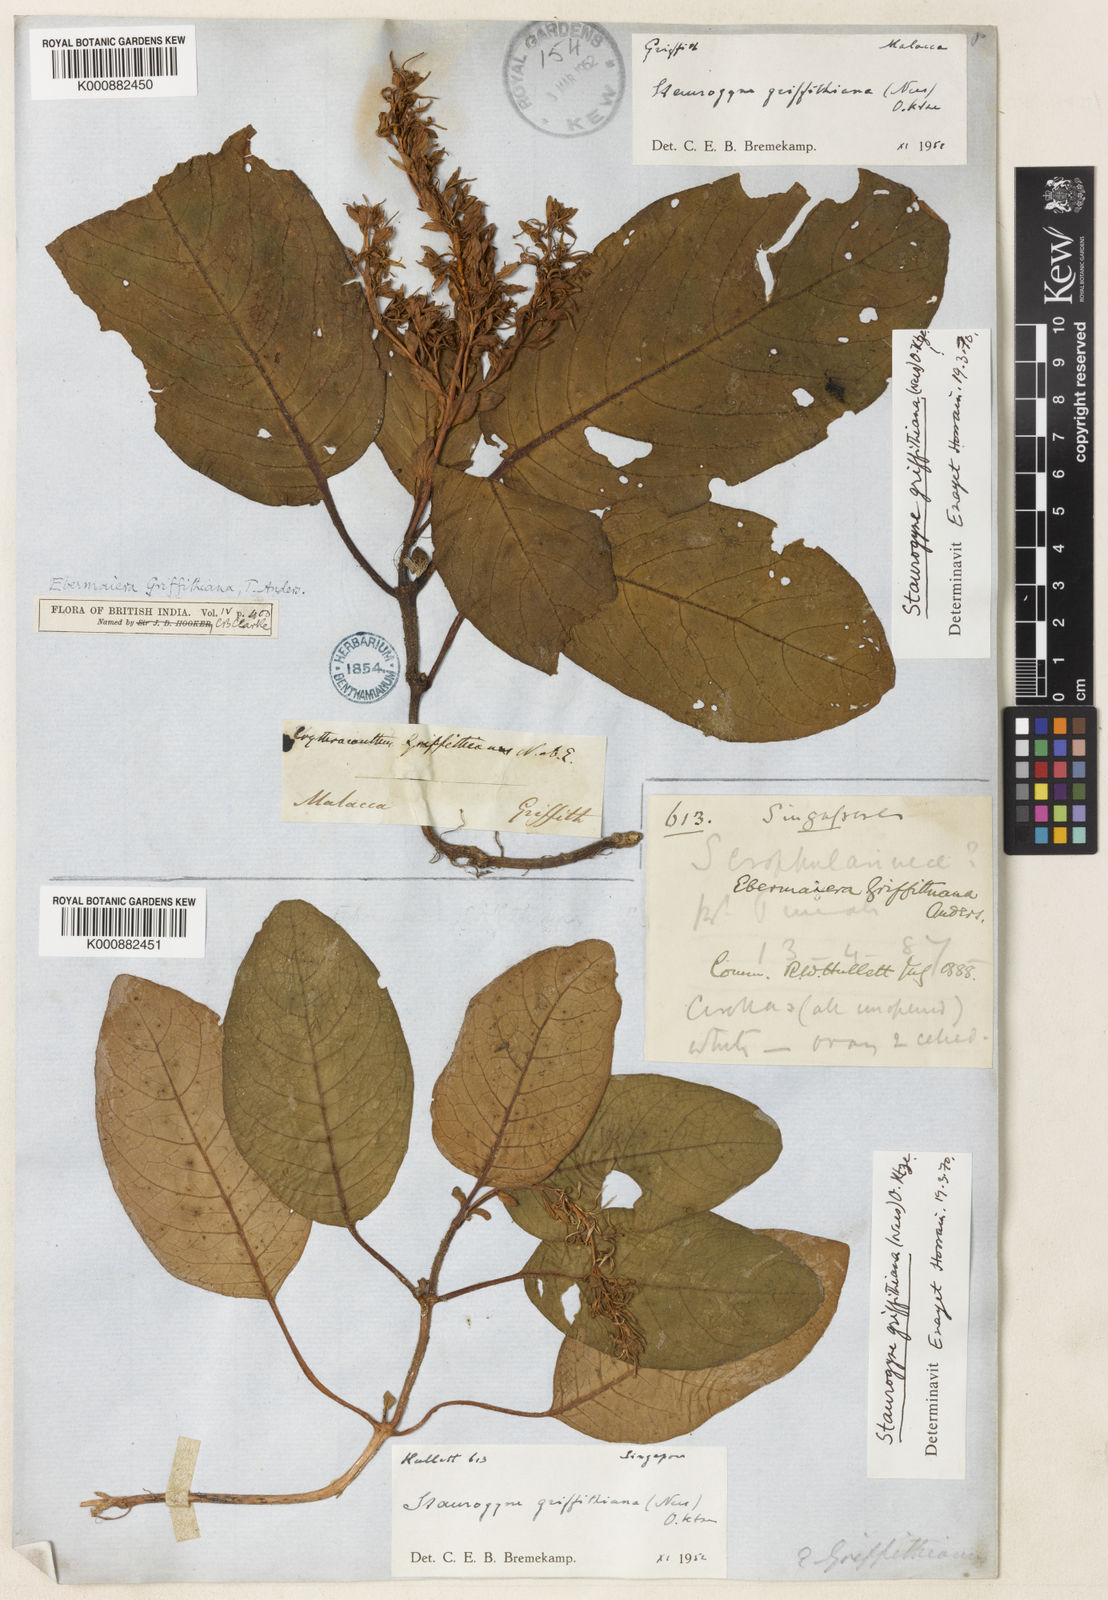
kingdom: Plantae
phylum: Tracheophyta
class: Magnoliopsida
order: Lamiales
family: Acanthaceae
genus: Staurogyne
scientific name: Staurogyne griffithiana
